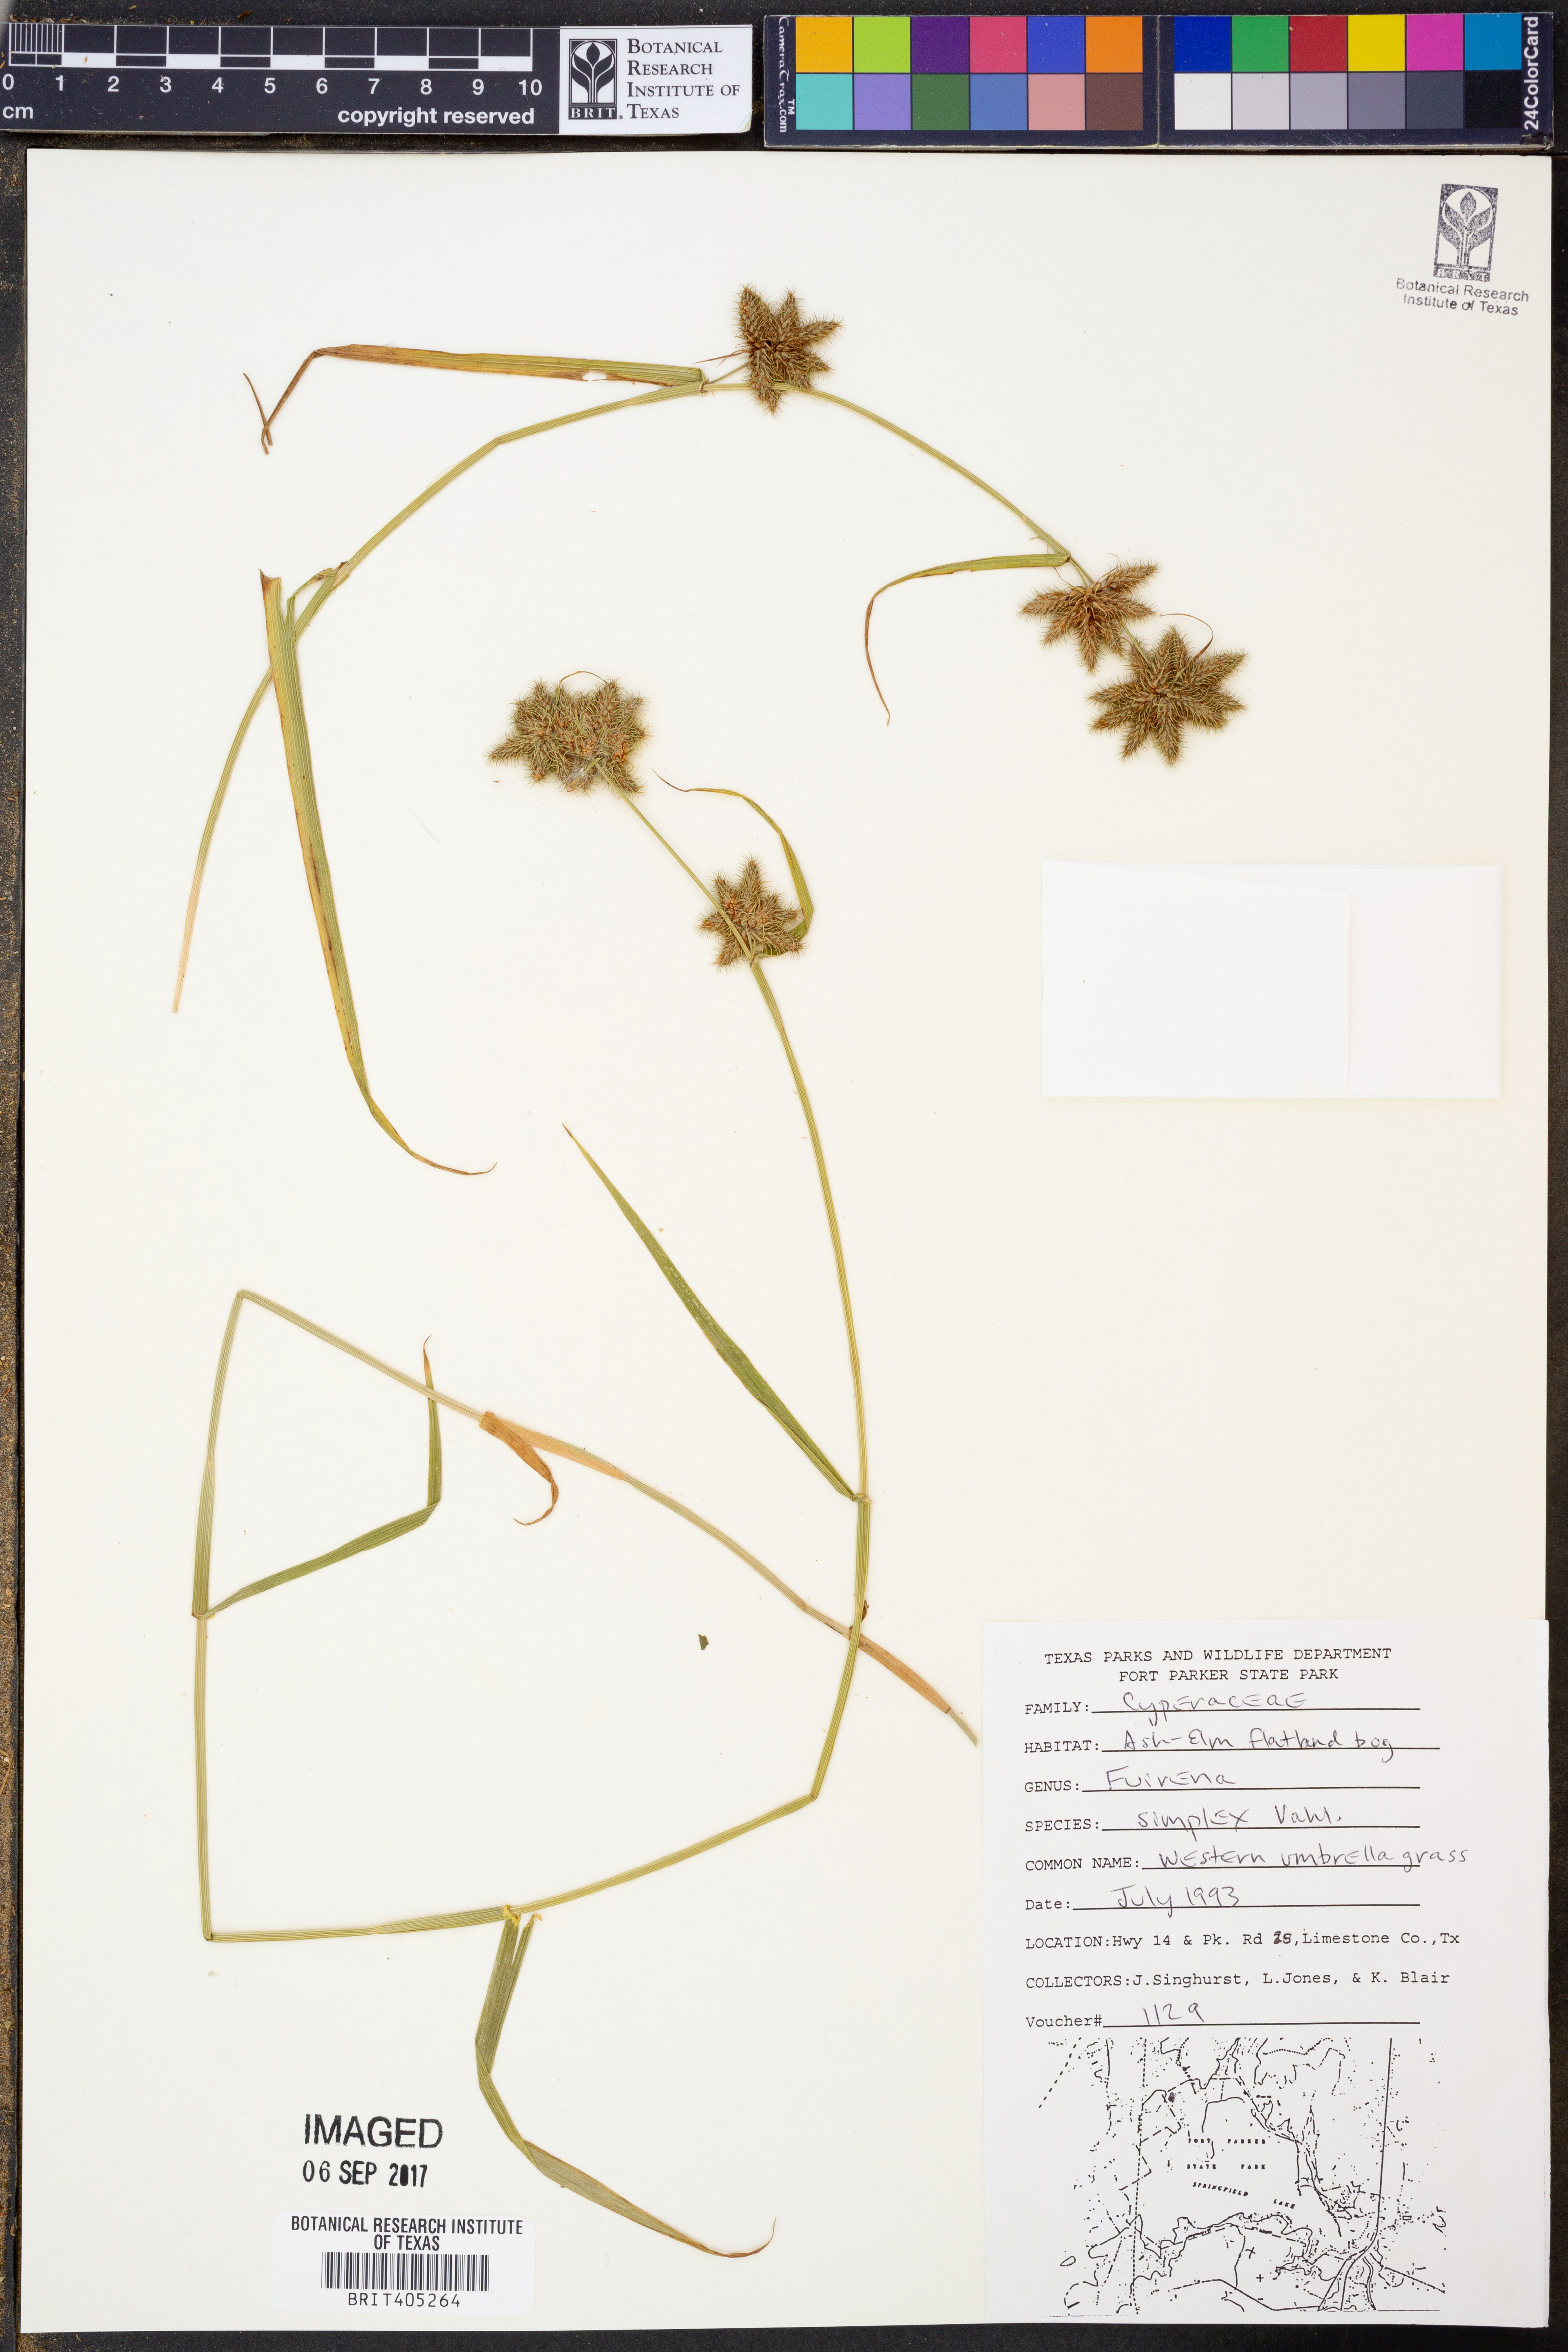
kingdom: Plantae
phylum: Tracheophyta
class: Liliopsida
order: Poales
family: Cyperaceae
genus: Fuirena
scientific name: Fuirena simplex
